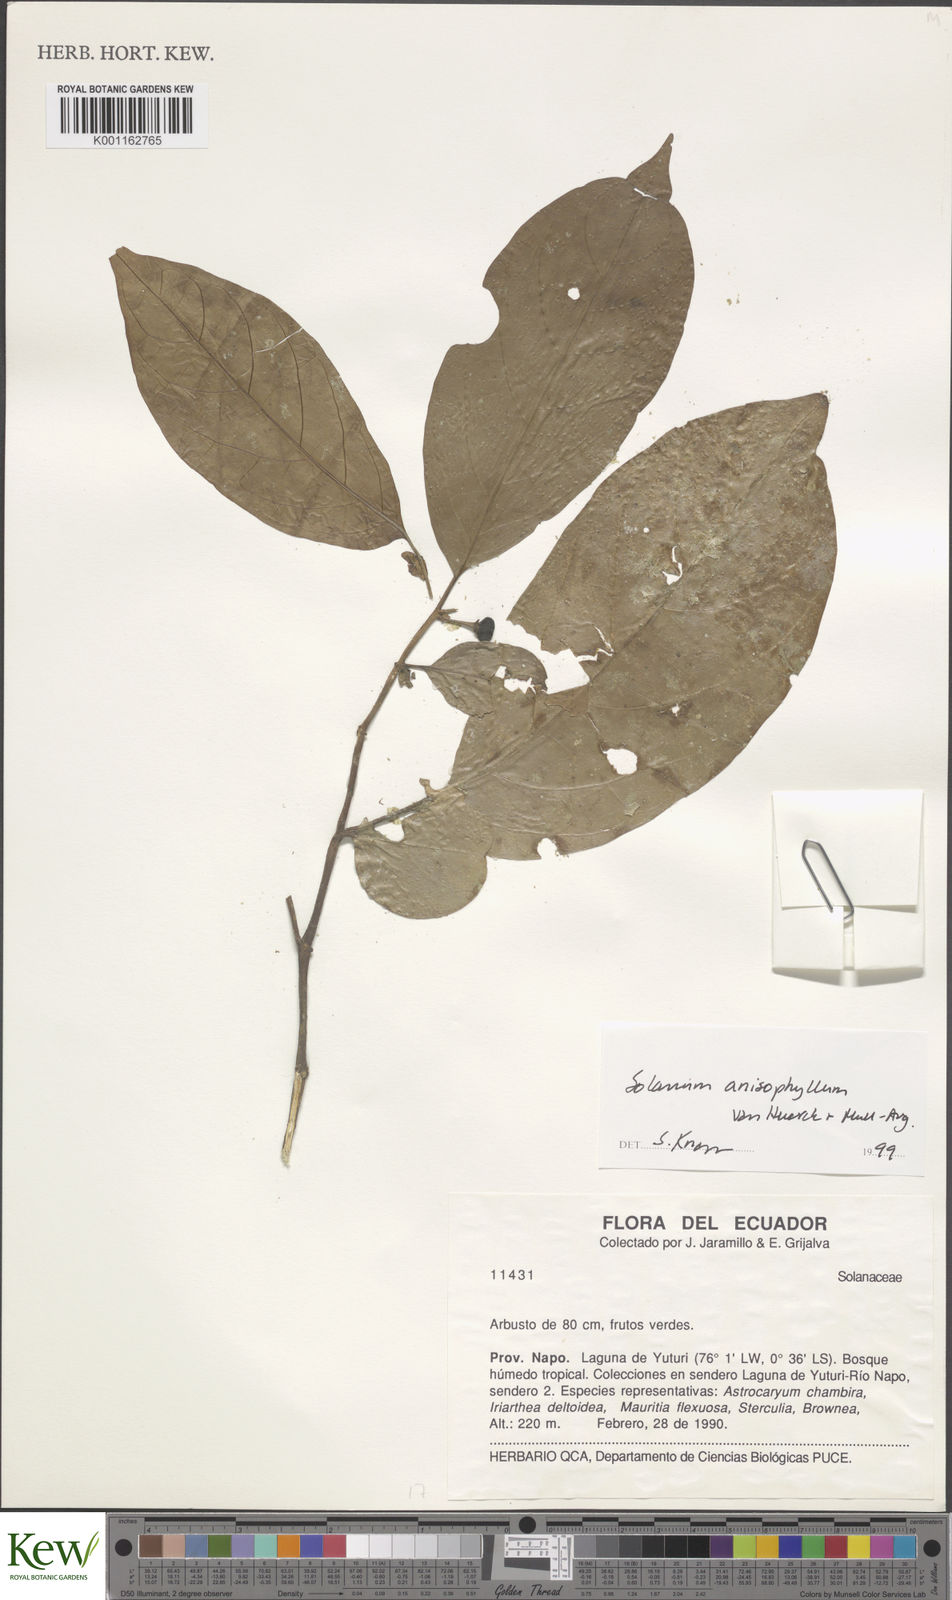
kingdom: Plantae
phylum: Tracheophyta
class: Magnoliopsida
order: Solanales
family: Solanaceae
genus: Solanum
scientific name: Solanum
